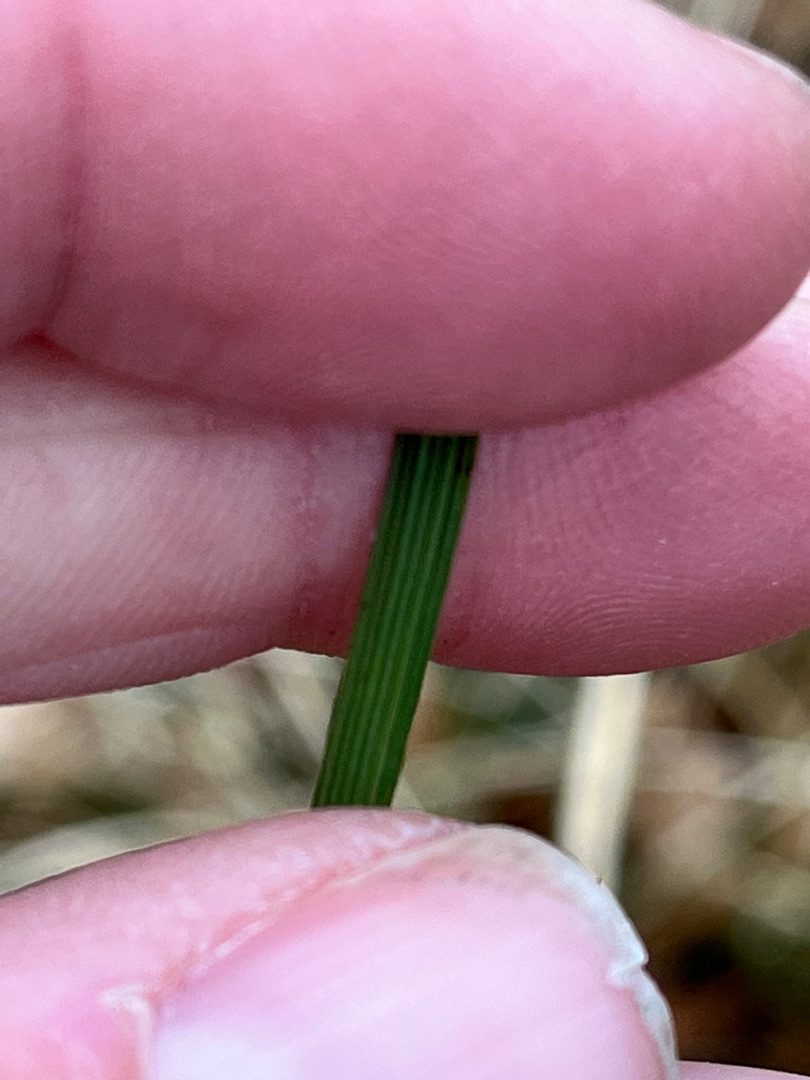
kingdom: Plantae
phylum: Tracheophyta
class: Liliopsida
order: Poales
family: Poaceae
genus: Deschampsia
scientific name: Deschampsia cespitosa
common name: Mose-bunke
